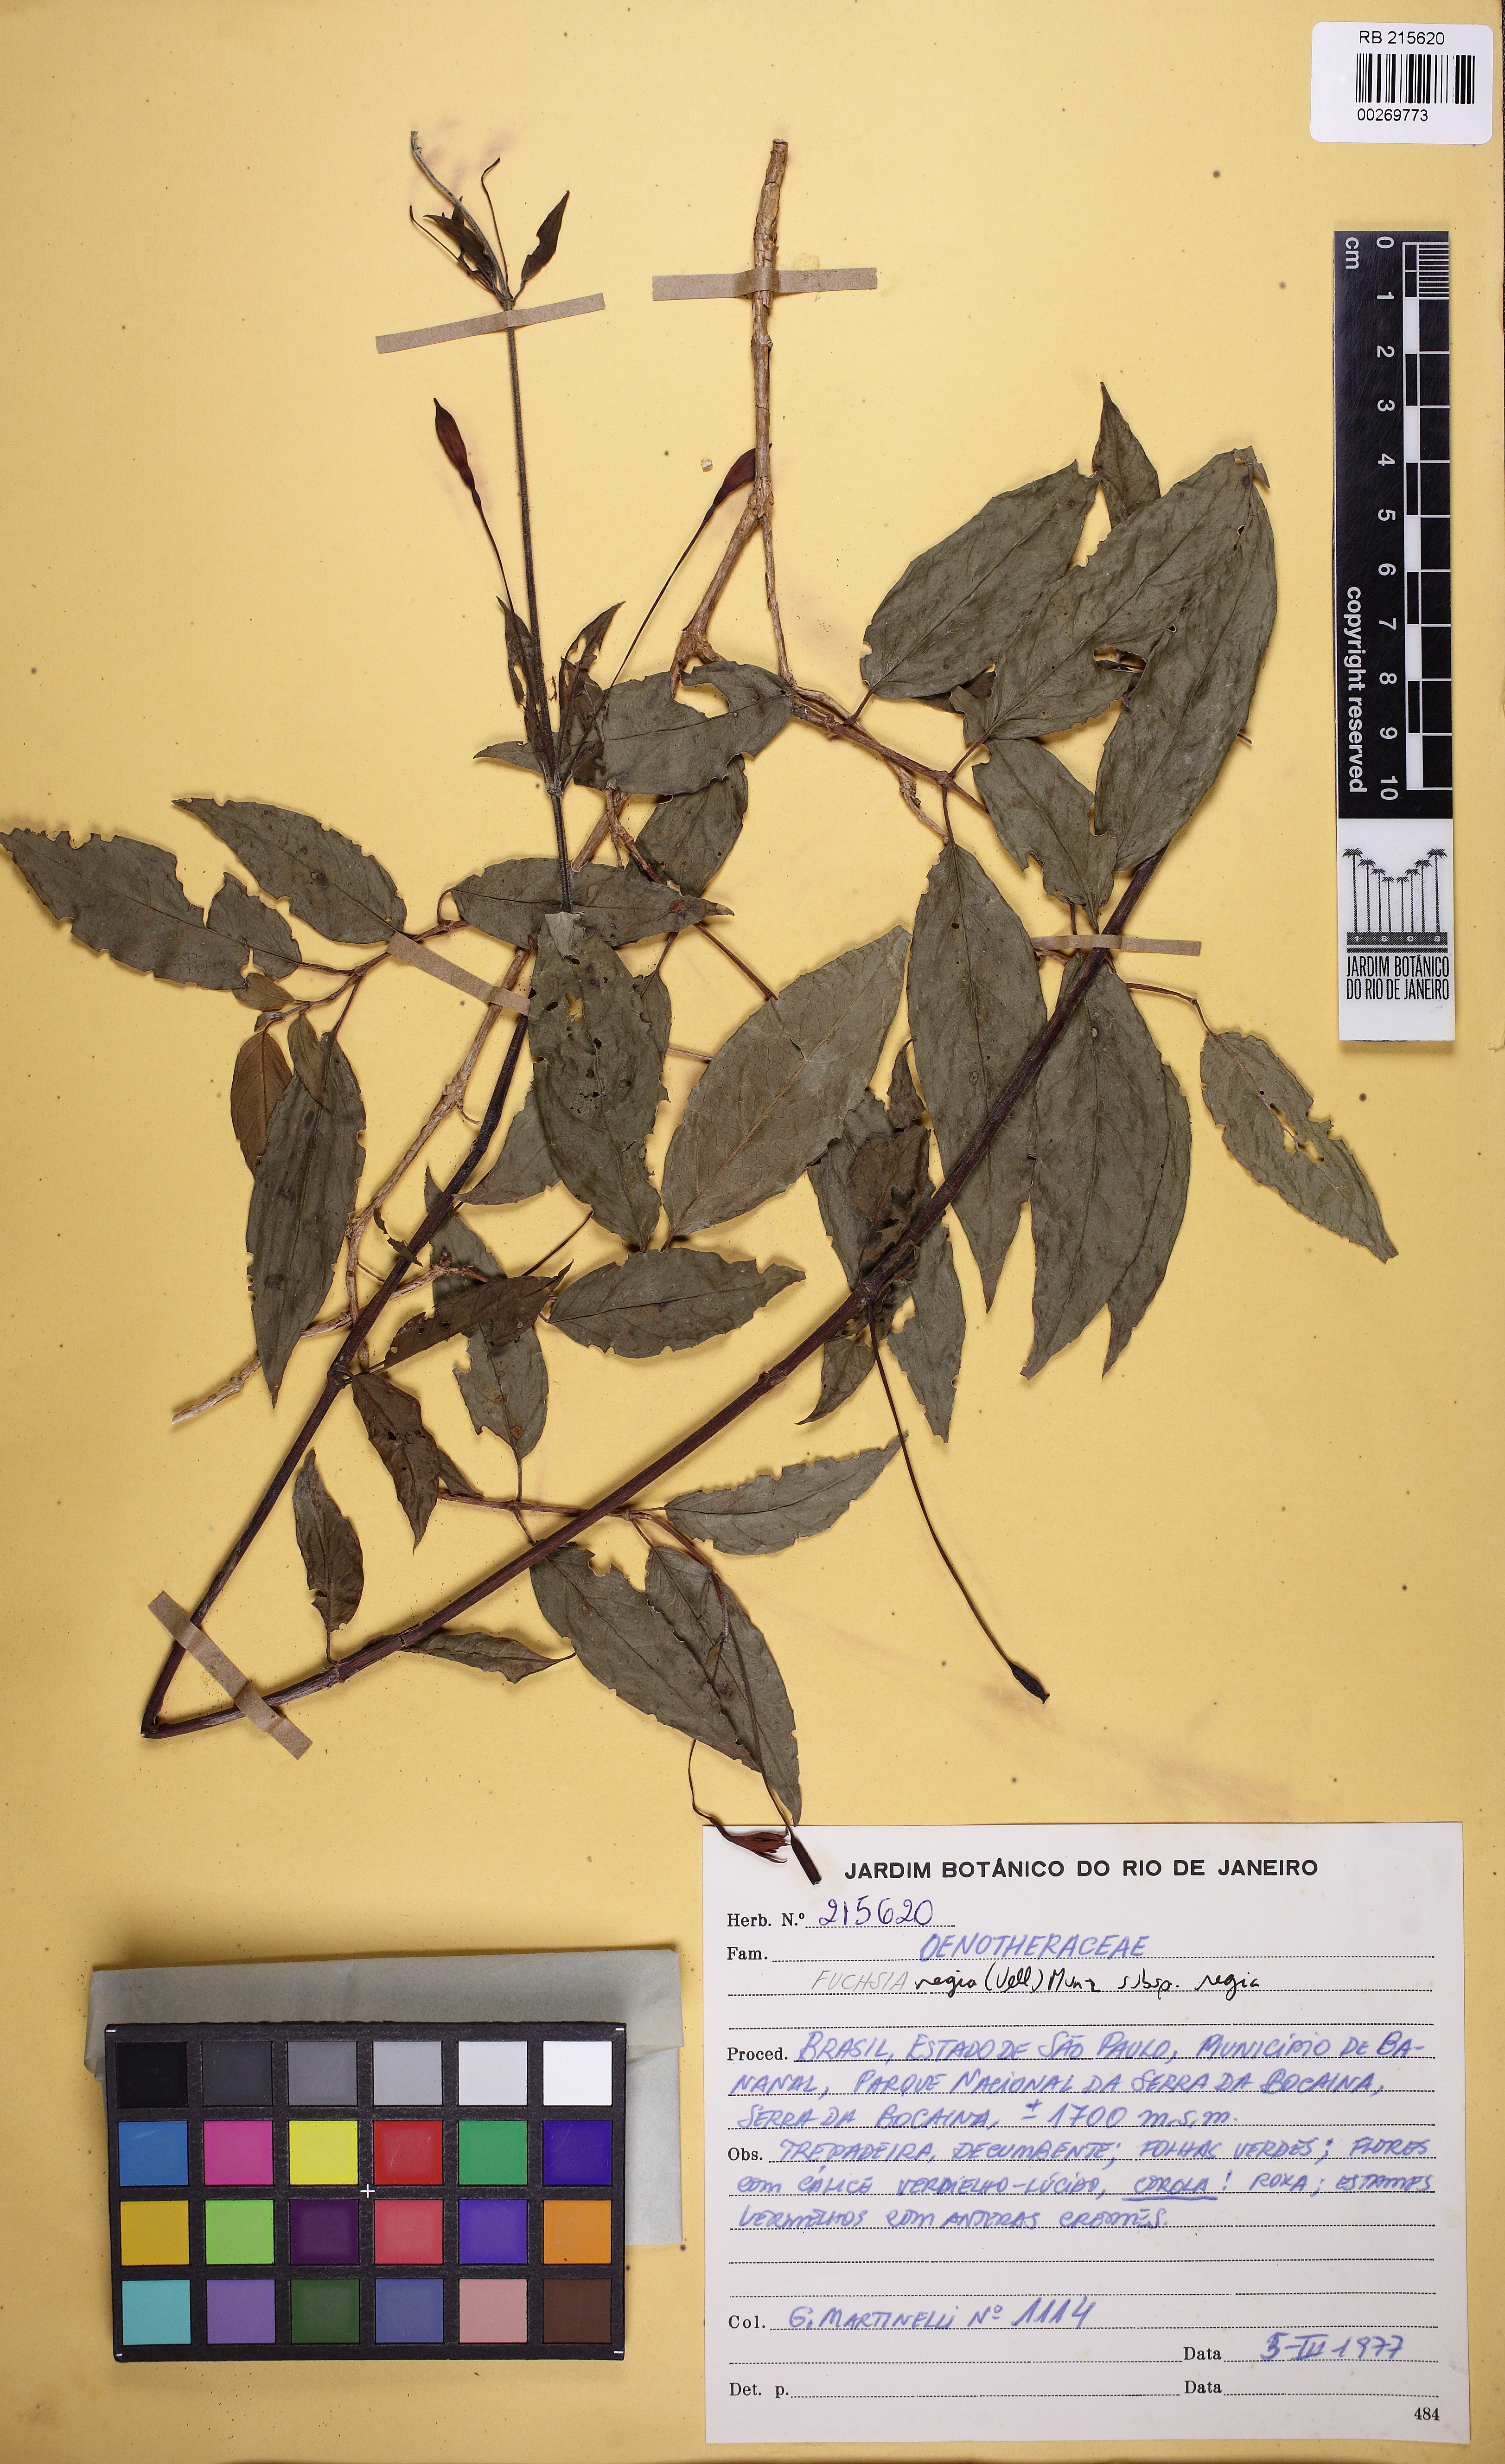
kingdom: Plantae
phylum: Tracheophyta
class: Magnoliopsida
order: Myrtales
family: Onagraceae
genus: Fuchsia
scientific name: Fuchsia regia
